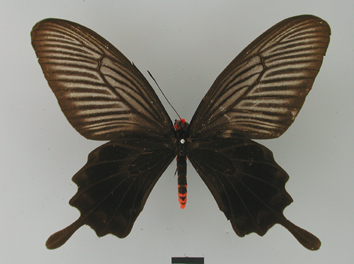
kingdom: Animalia
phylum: Arthropoda
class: Insecta
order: Lepidoptera
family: Papilionidae
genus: Pachliopta
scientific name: Pachliopta atropos
